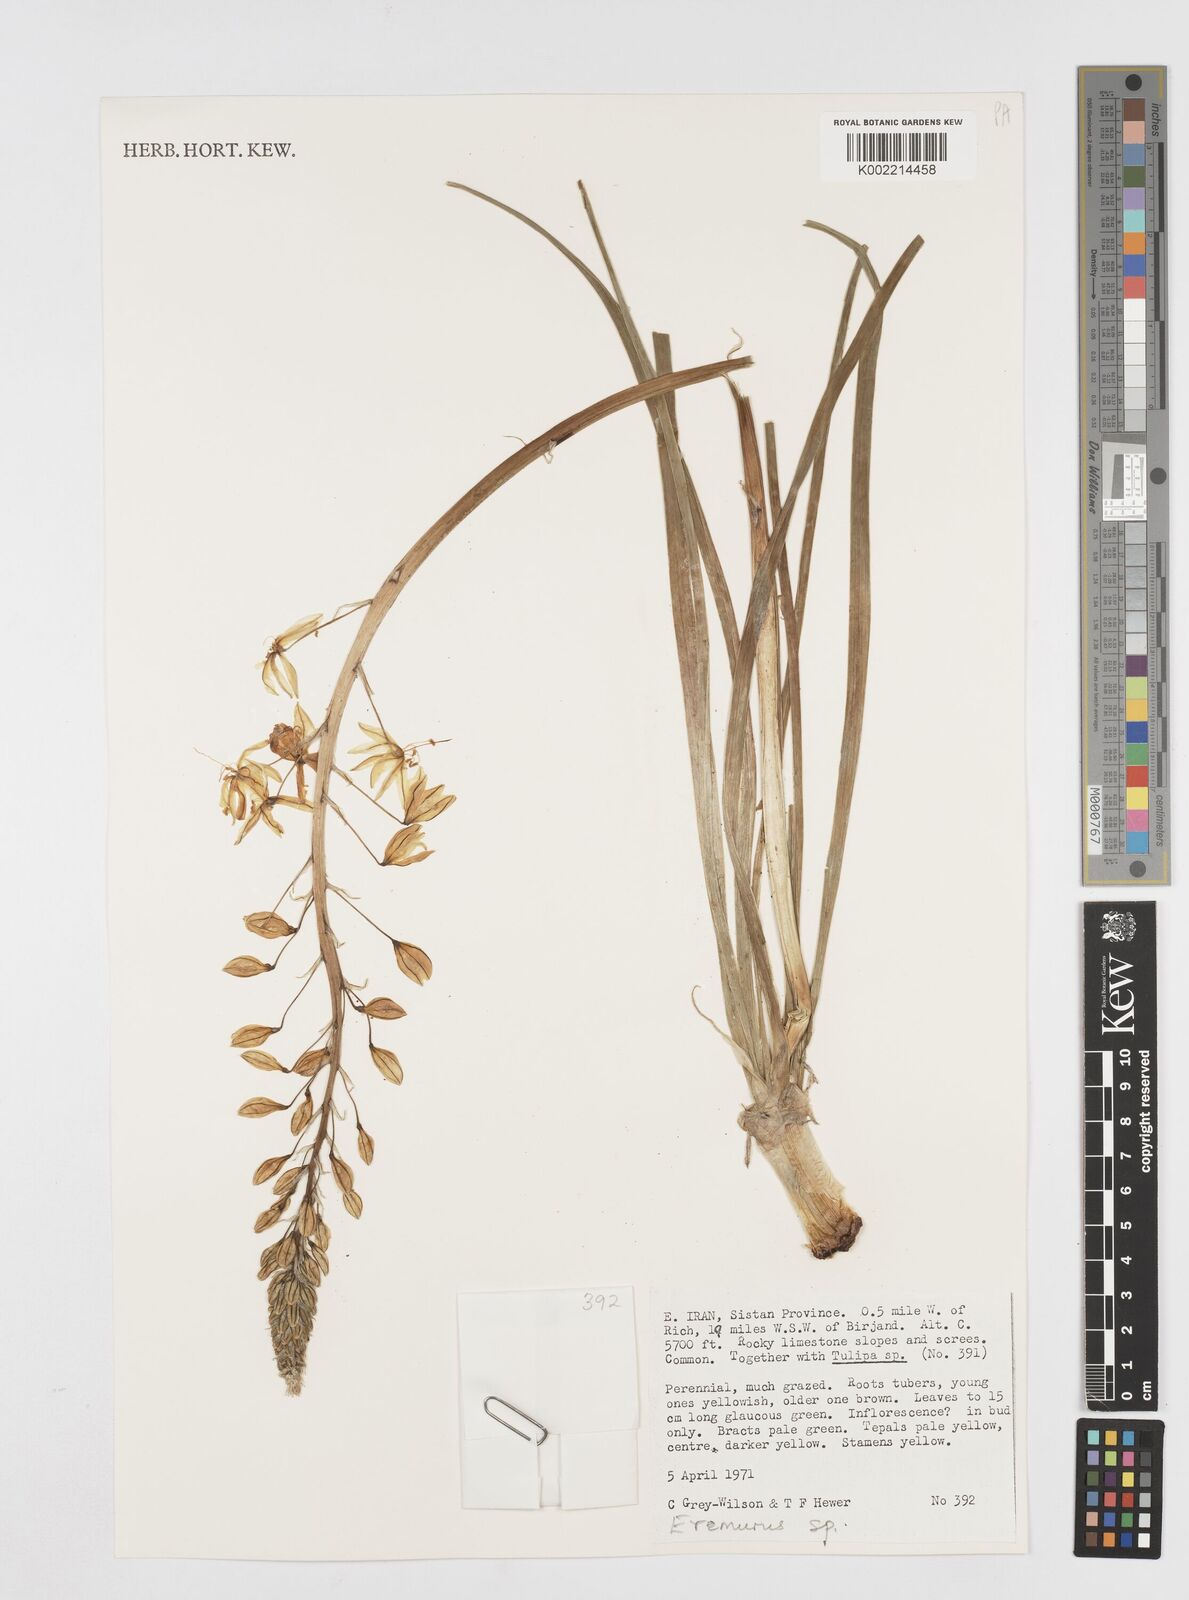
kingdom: Plantae
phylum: Tracheophyta
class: Liliopsida
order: Asparagales
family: Asphodelaceae
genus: Eremurus
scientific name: Eremurus
